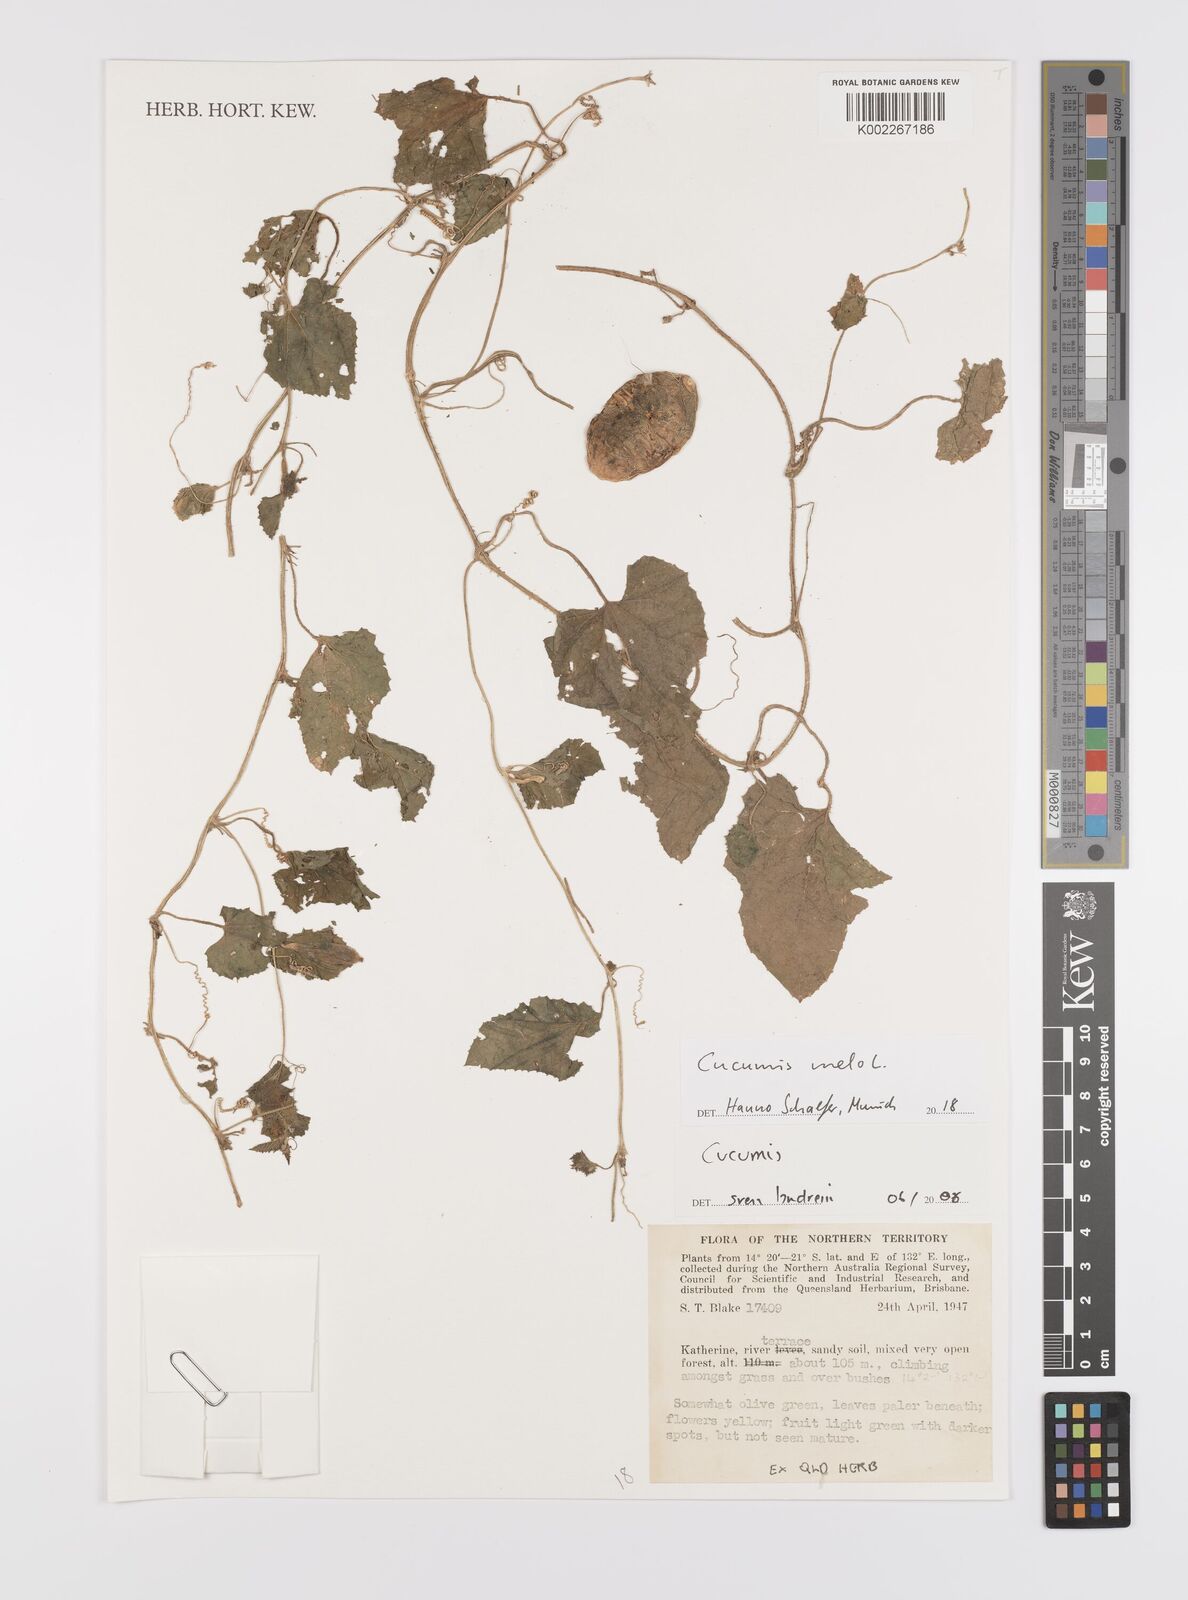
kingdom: Plantae
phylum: Tracheophyta
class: Magnoliopsida
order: Cucurbitales
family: Cucurbitaceae
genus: Cucumis
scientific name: Cucumis melo
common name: Melon
